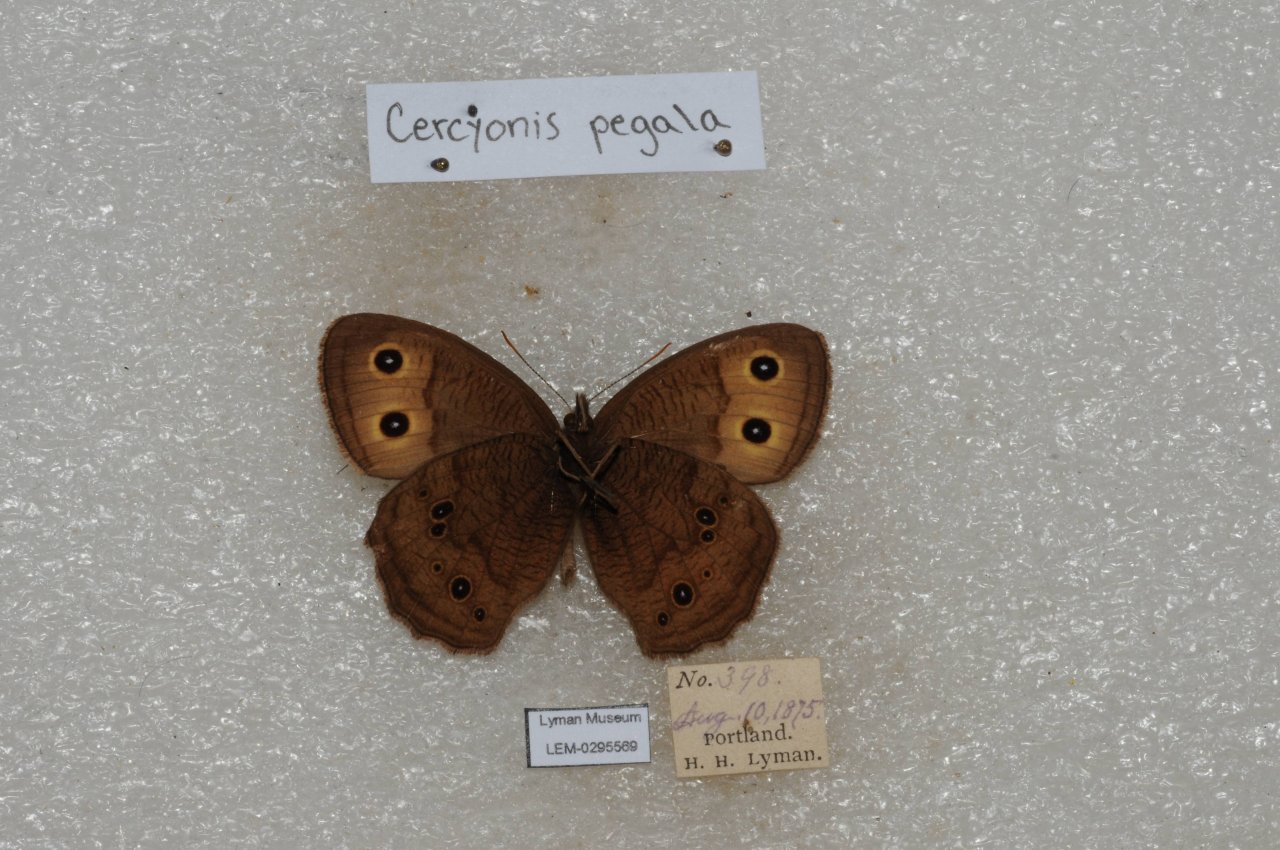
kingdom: Animalia
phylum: Arthropoda
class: Insecta
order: Lepidoptera
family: Nymphalidae
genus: Cercyonis
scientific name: Cercyonis pegala
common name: Common Wood-Nymph
